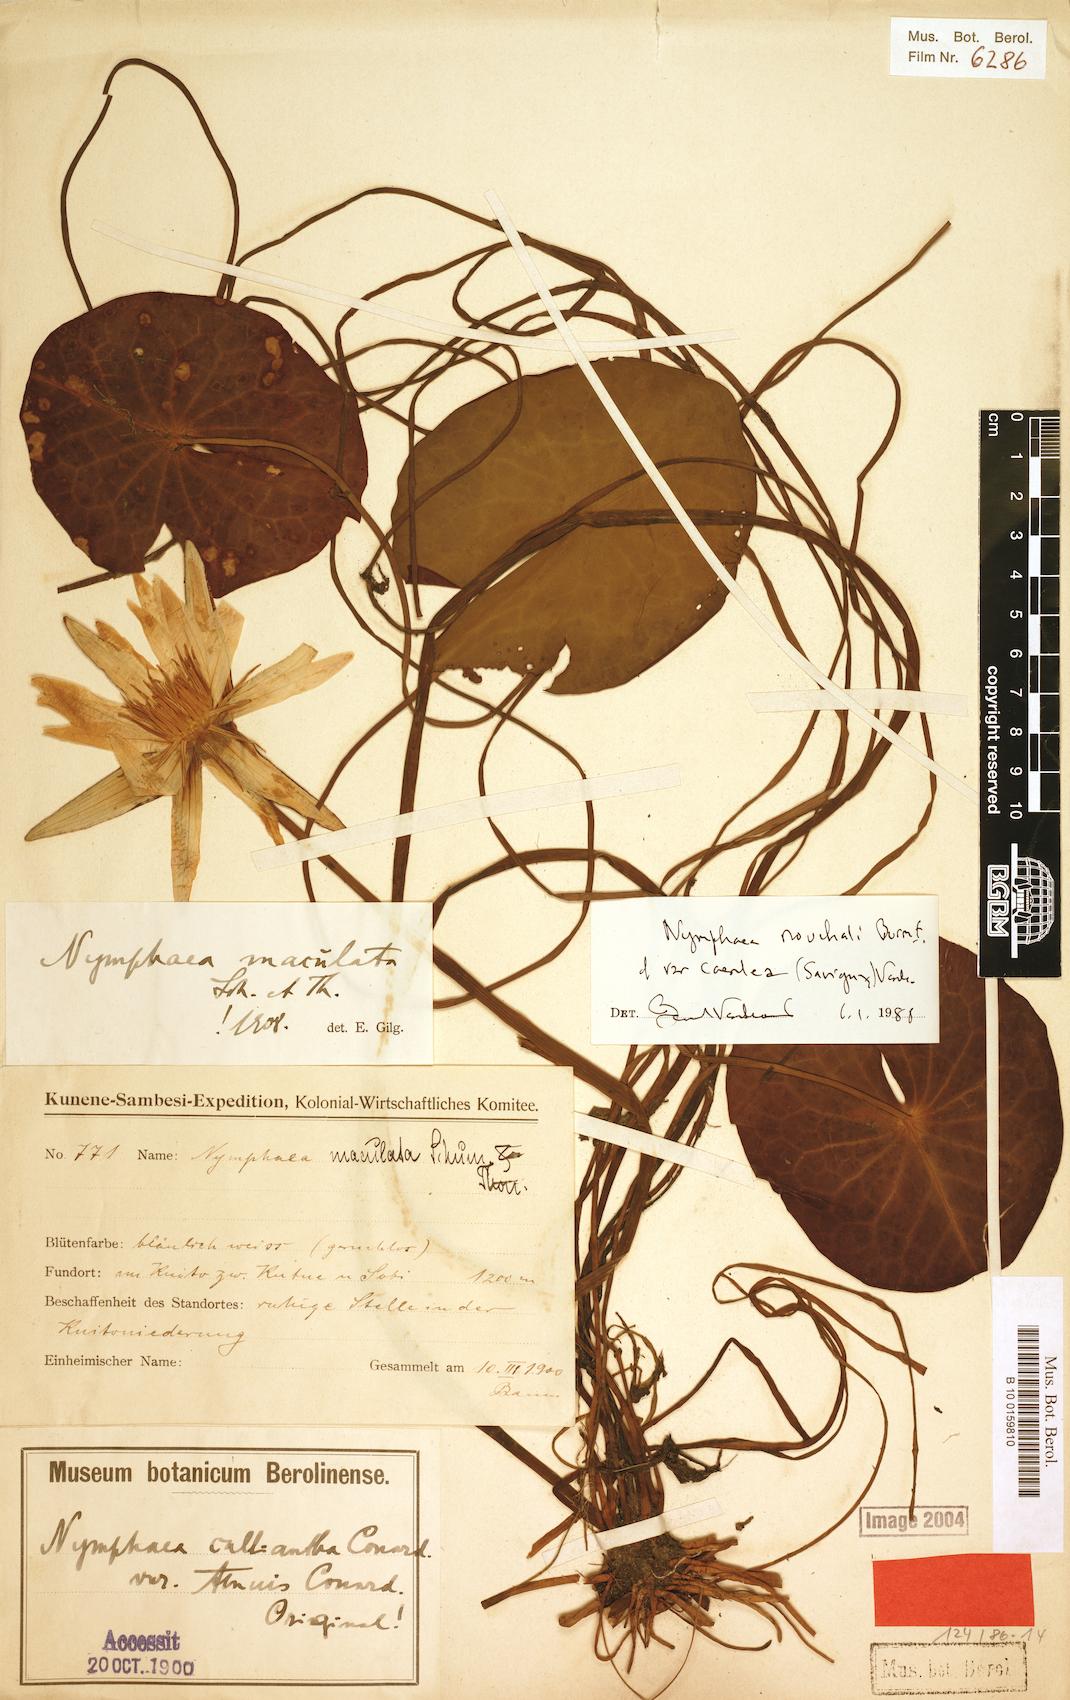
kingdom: Plantae
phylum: Tracheophyta
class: Magnoliopsida
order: Nymphaeales
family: Nymphaeaceae
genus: Nymphaea
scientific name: Nymphaea nouchali
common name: Blue lotus
